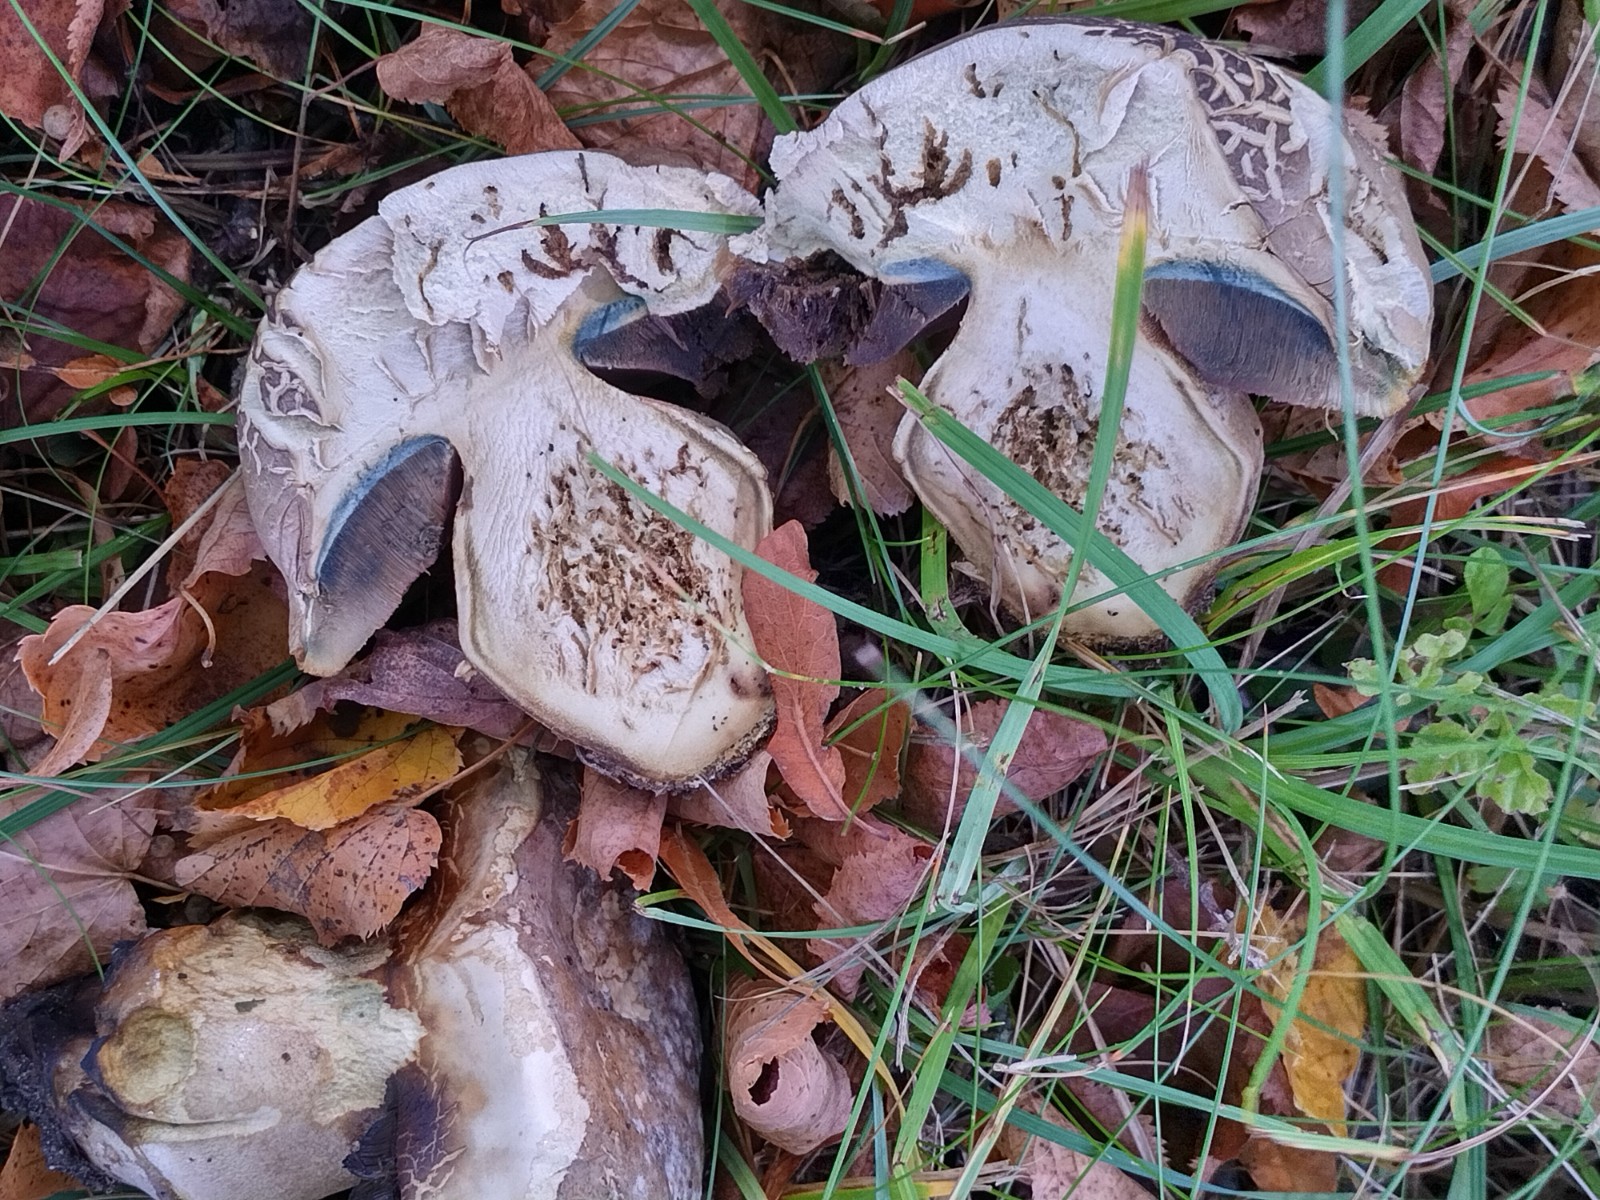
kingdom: Fungi
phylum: Basidiomycota
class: Agaricomycetes
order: Boletales
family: Boletaceae
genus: Caloboletus
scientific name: Caloboletus radicans
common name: rod-rørhat
